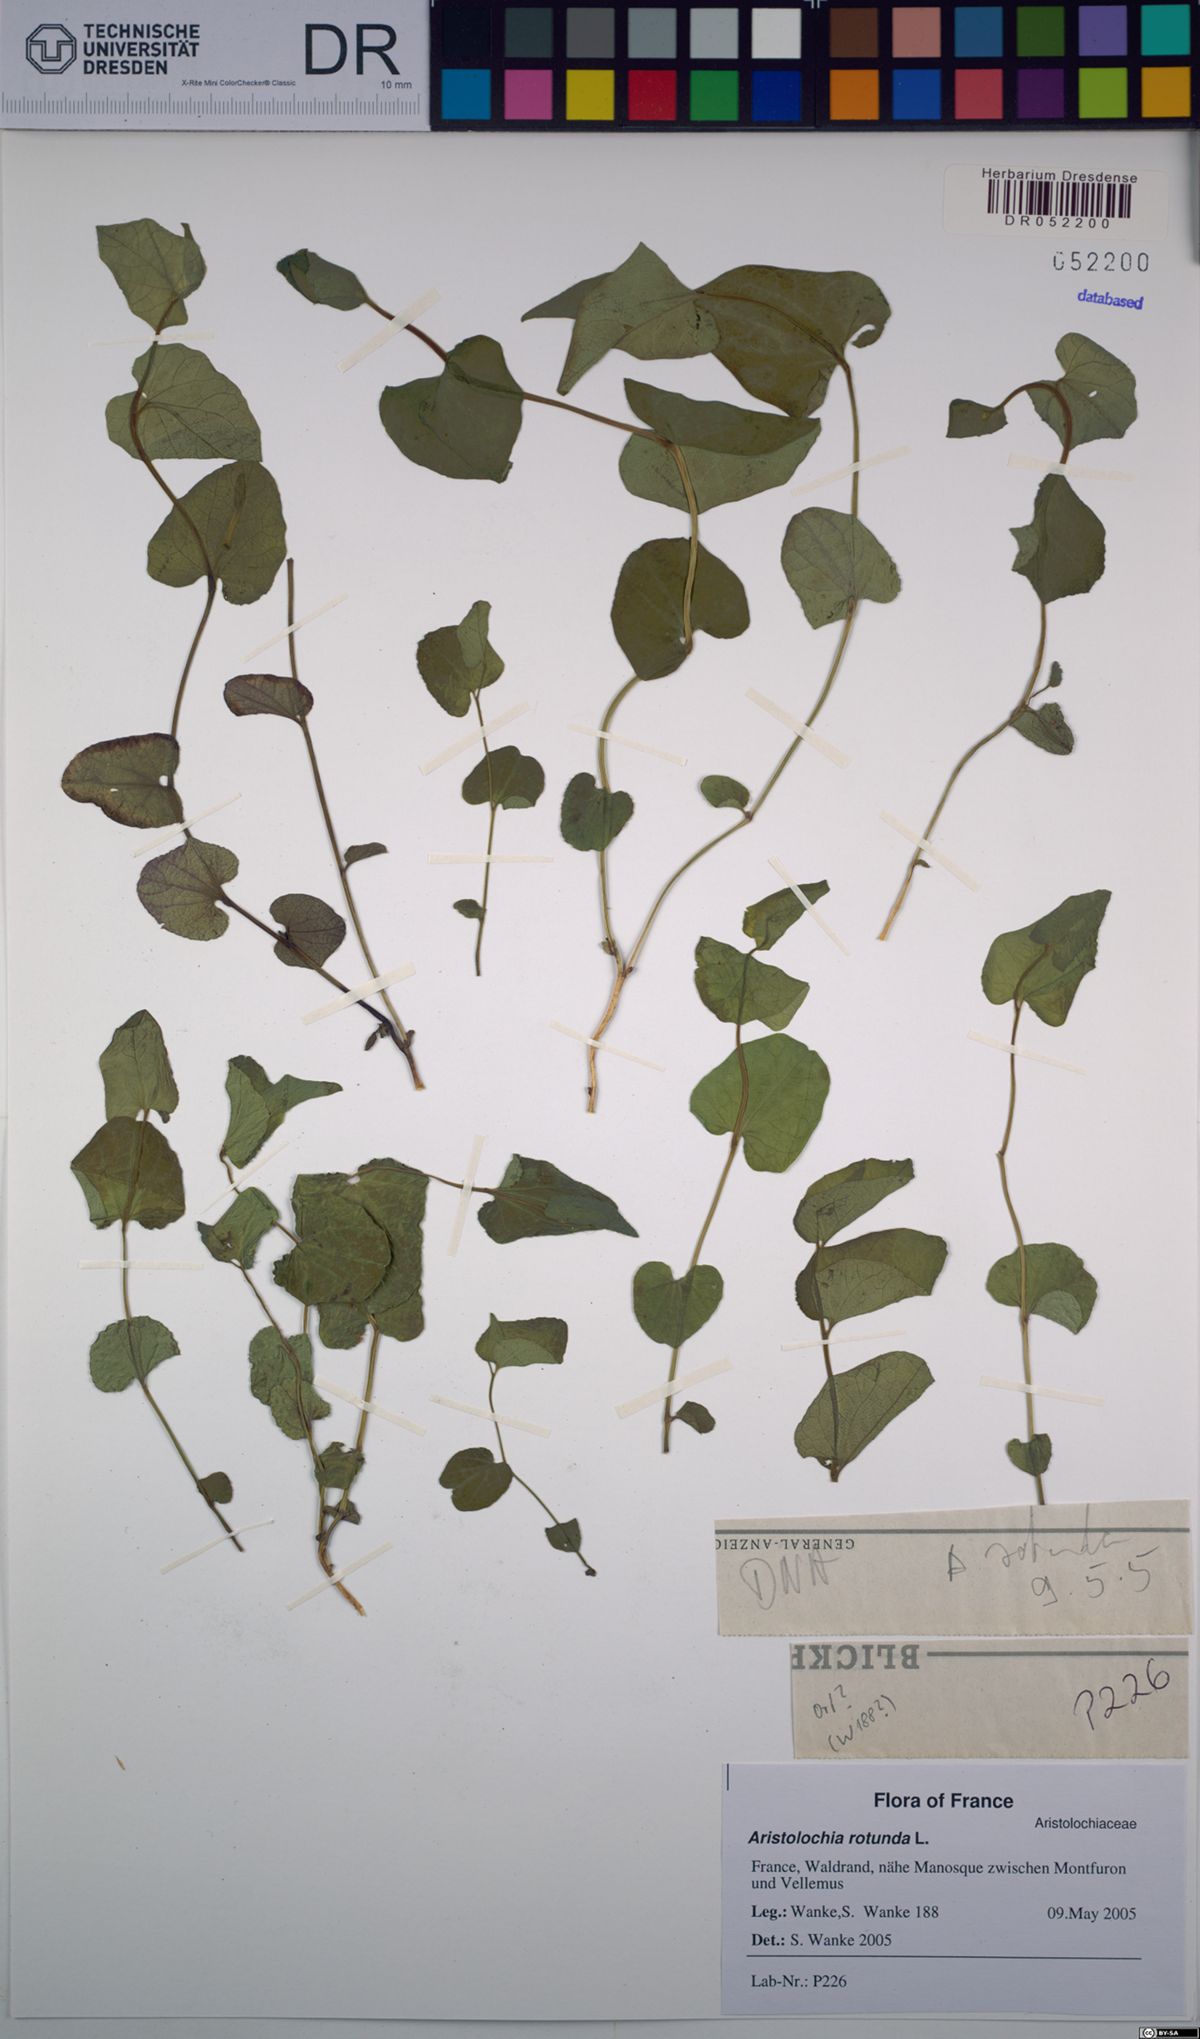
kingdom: Plantae
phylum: Tracheophyta
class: Magnoliopsida
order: Piperales
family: Aristolochiaceae
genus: Aristolochia
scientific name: Aristolochia rotunda
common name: Smearwort
